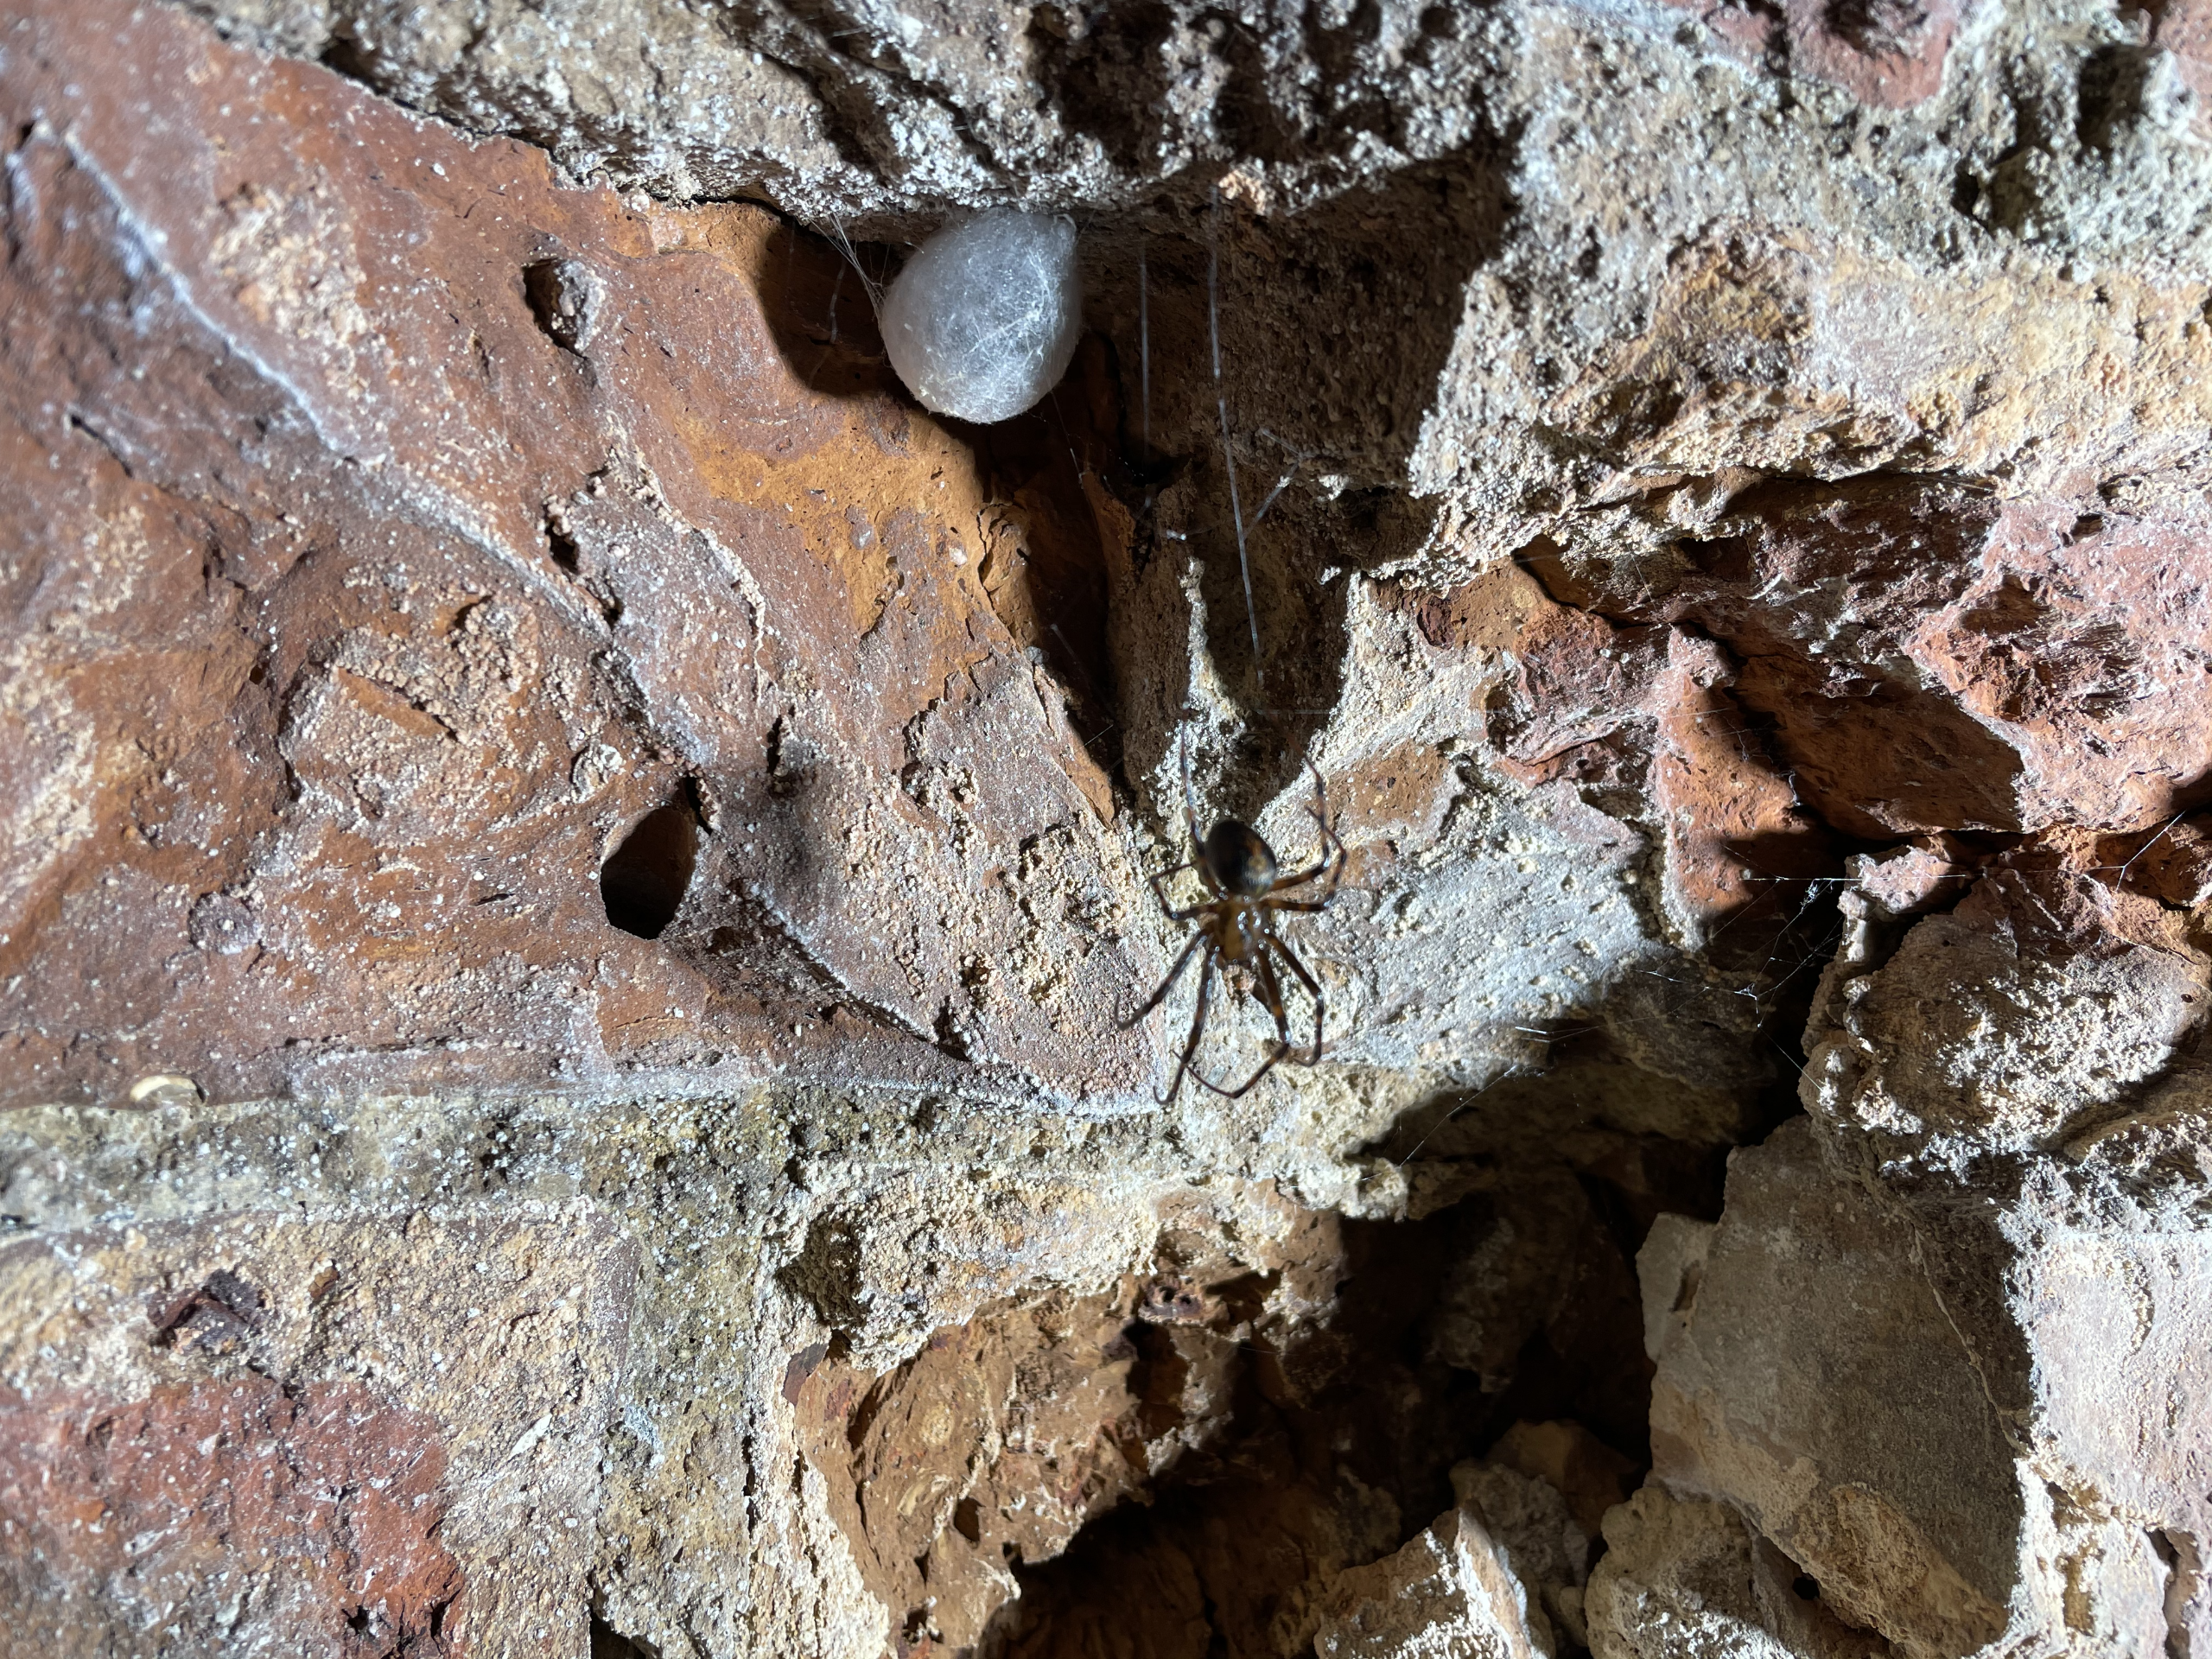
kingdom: Animalia
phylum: Arthropoda
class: Arachnida
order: Araneae
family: Tetragnathidae
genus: Meta
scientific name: Meta menardi
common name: Grotteedderkop
